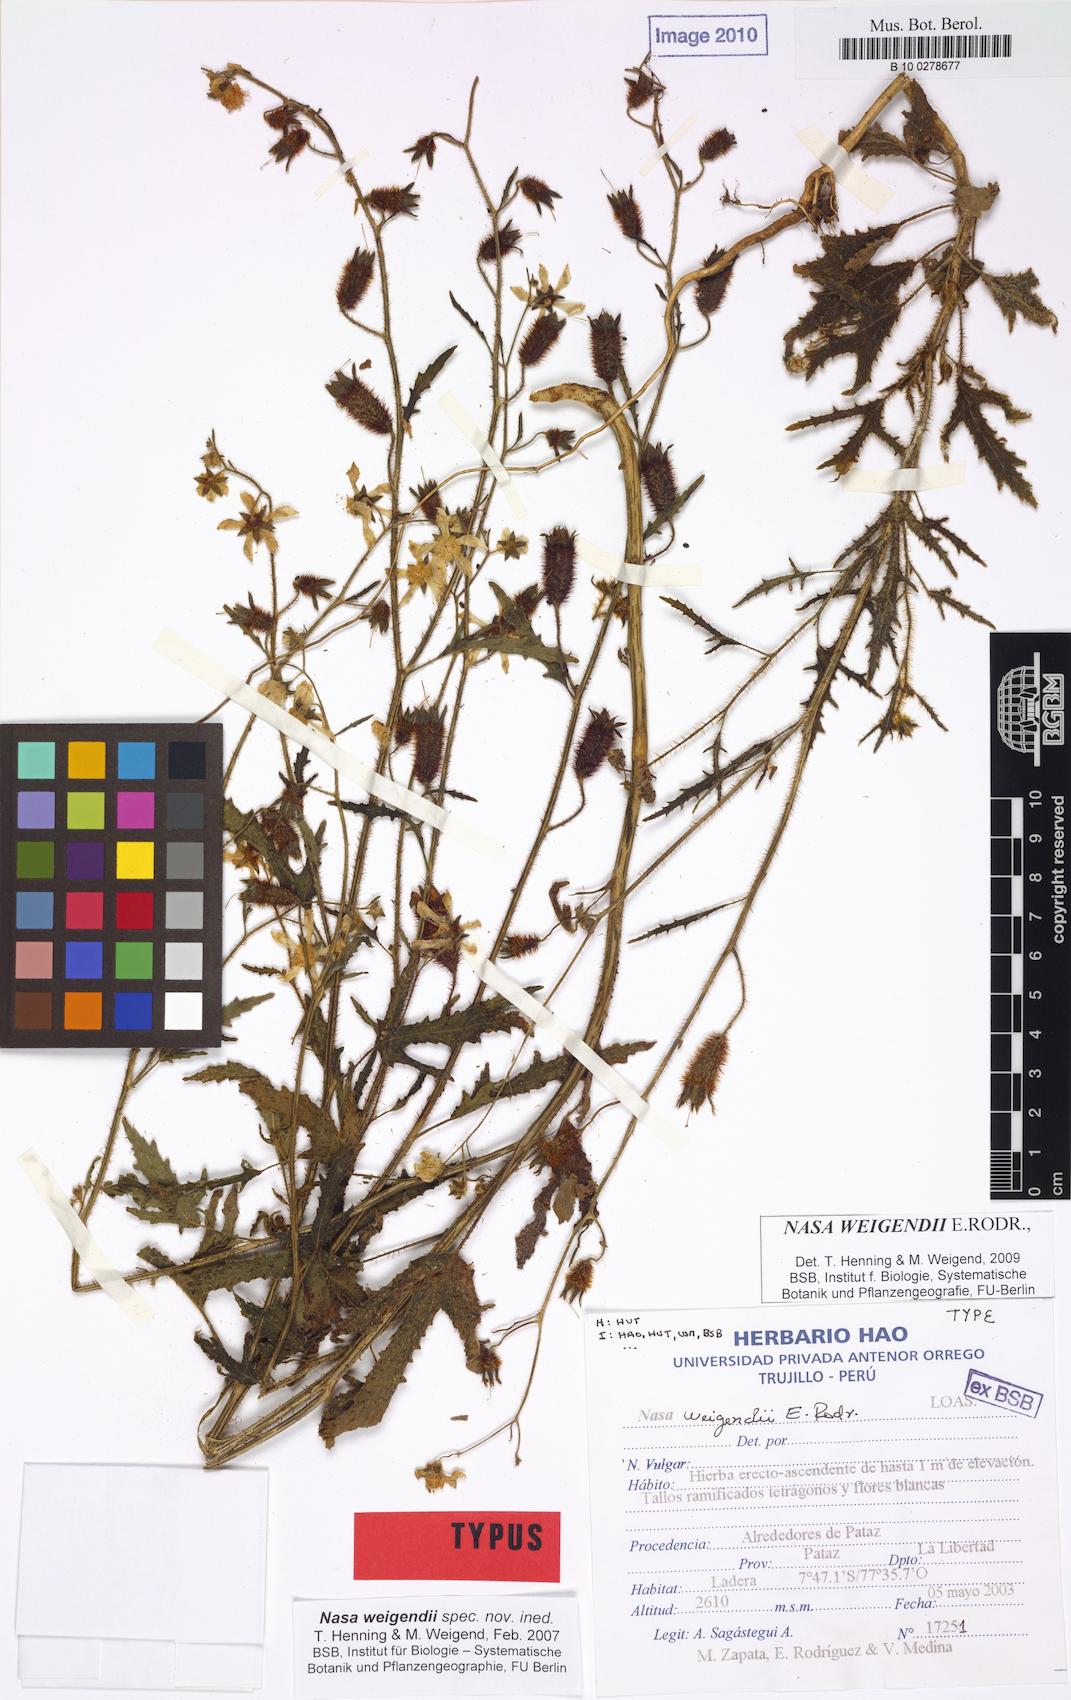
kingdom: Plantae
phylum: Tracheophyta
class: Magnoliopsida
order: Cornales
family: Loasaceae
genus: Nasa
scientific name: Nasa weigendii
